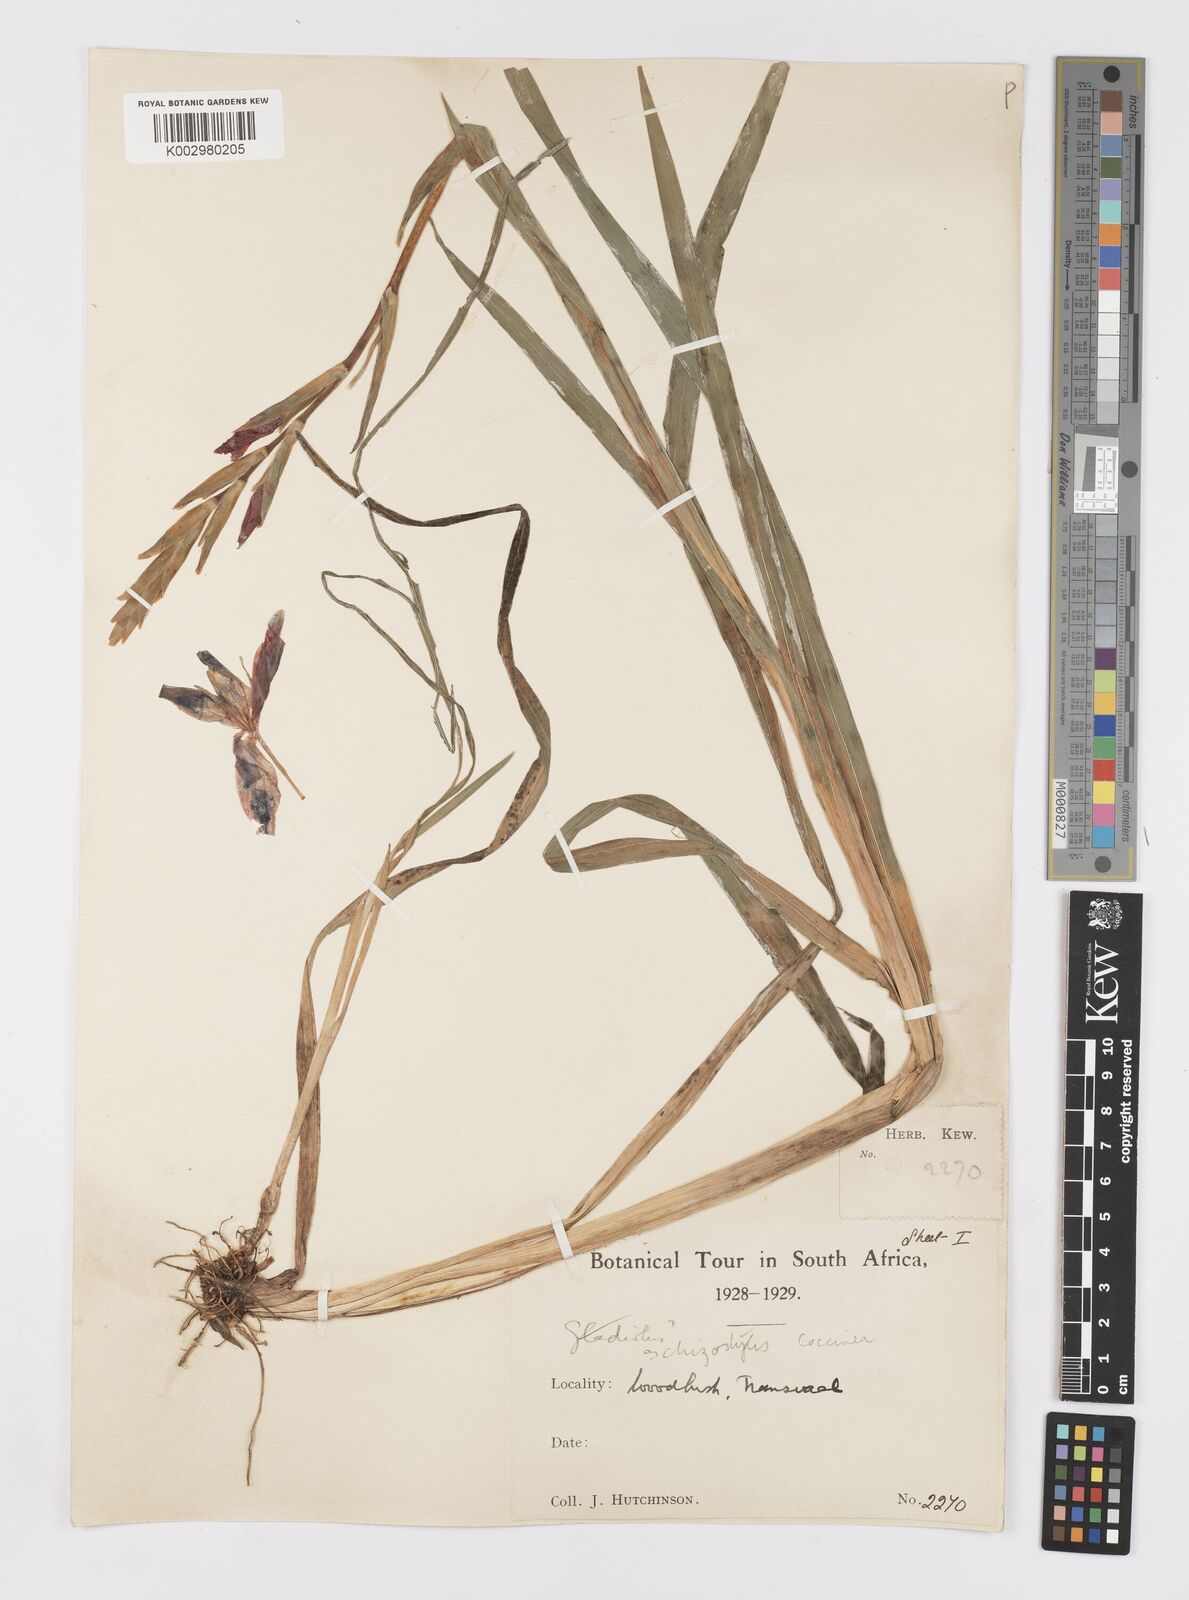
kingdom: Plantae
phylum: Tracheophyta
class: Liliopsida
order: Asparagales
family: Iridaceae
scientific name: Iridaceae
